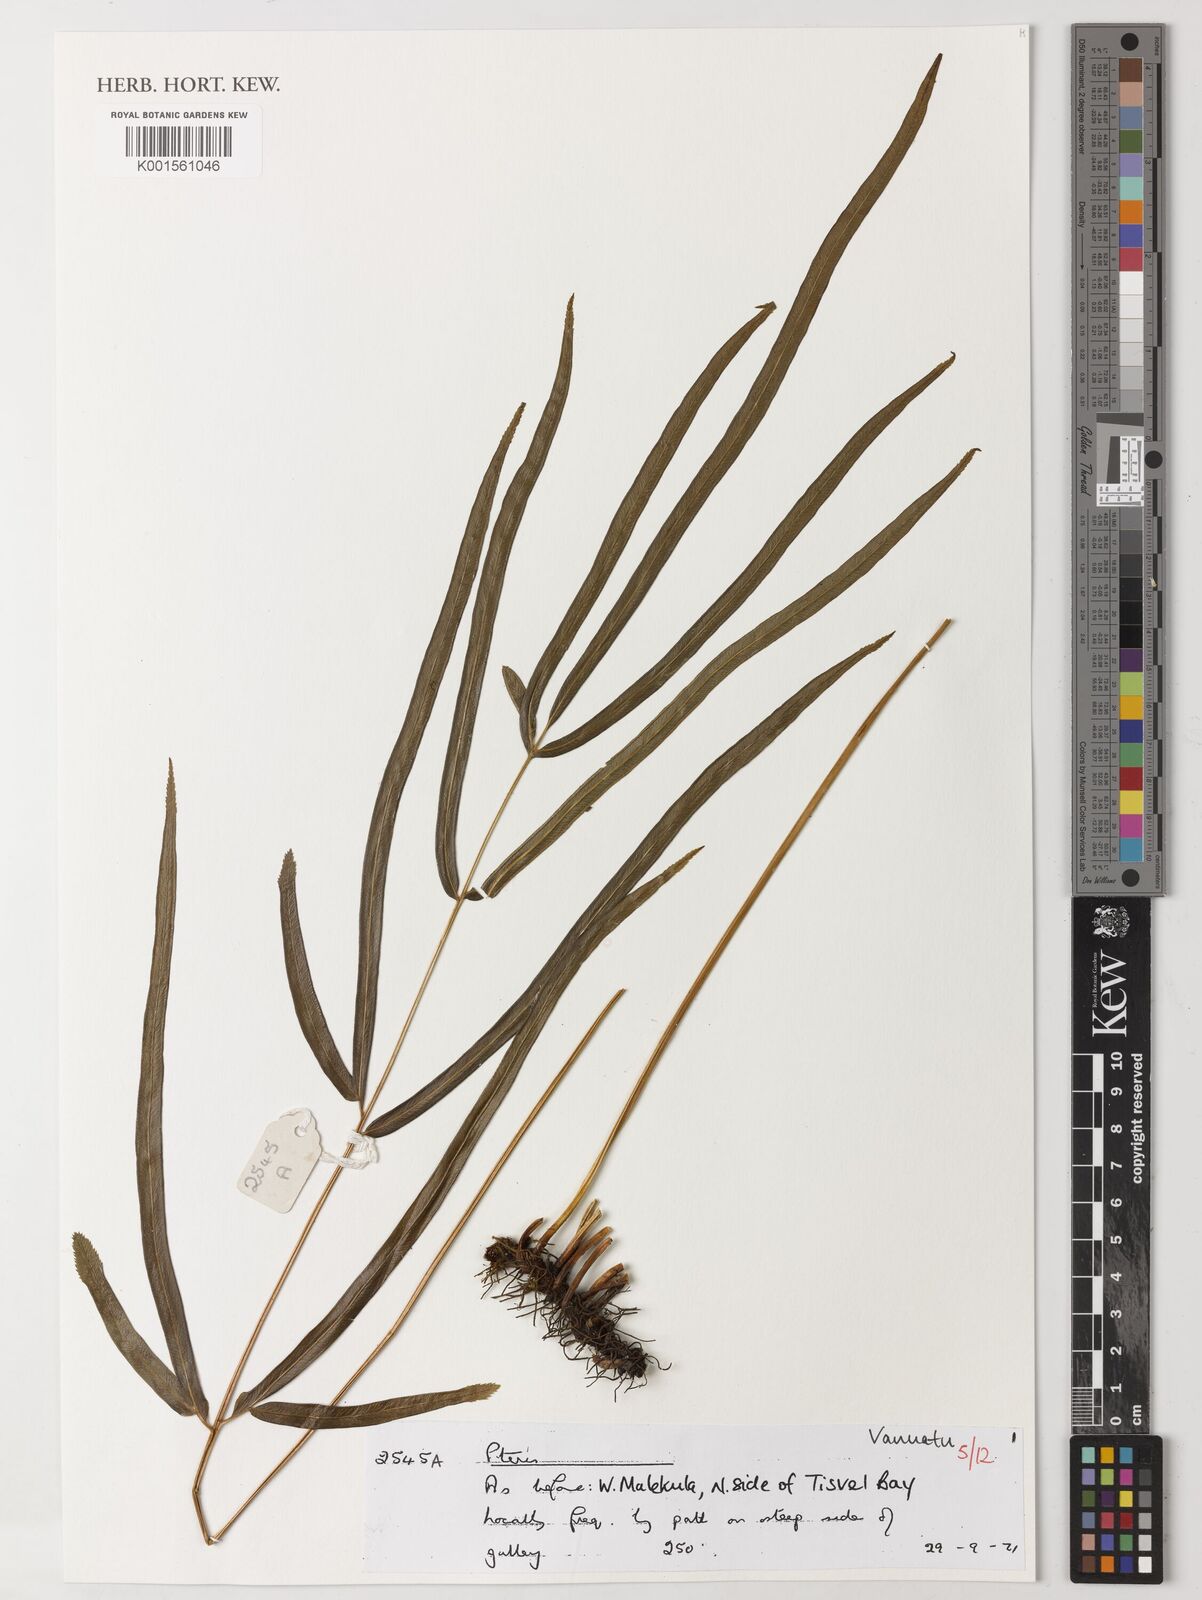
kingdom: Plantae
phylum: Tracheophyta
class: Polypodiopsida
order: Polypodiales
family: Pteridaceae
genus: Pteris
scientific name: Pteris
